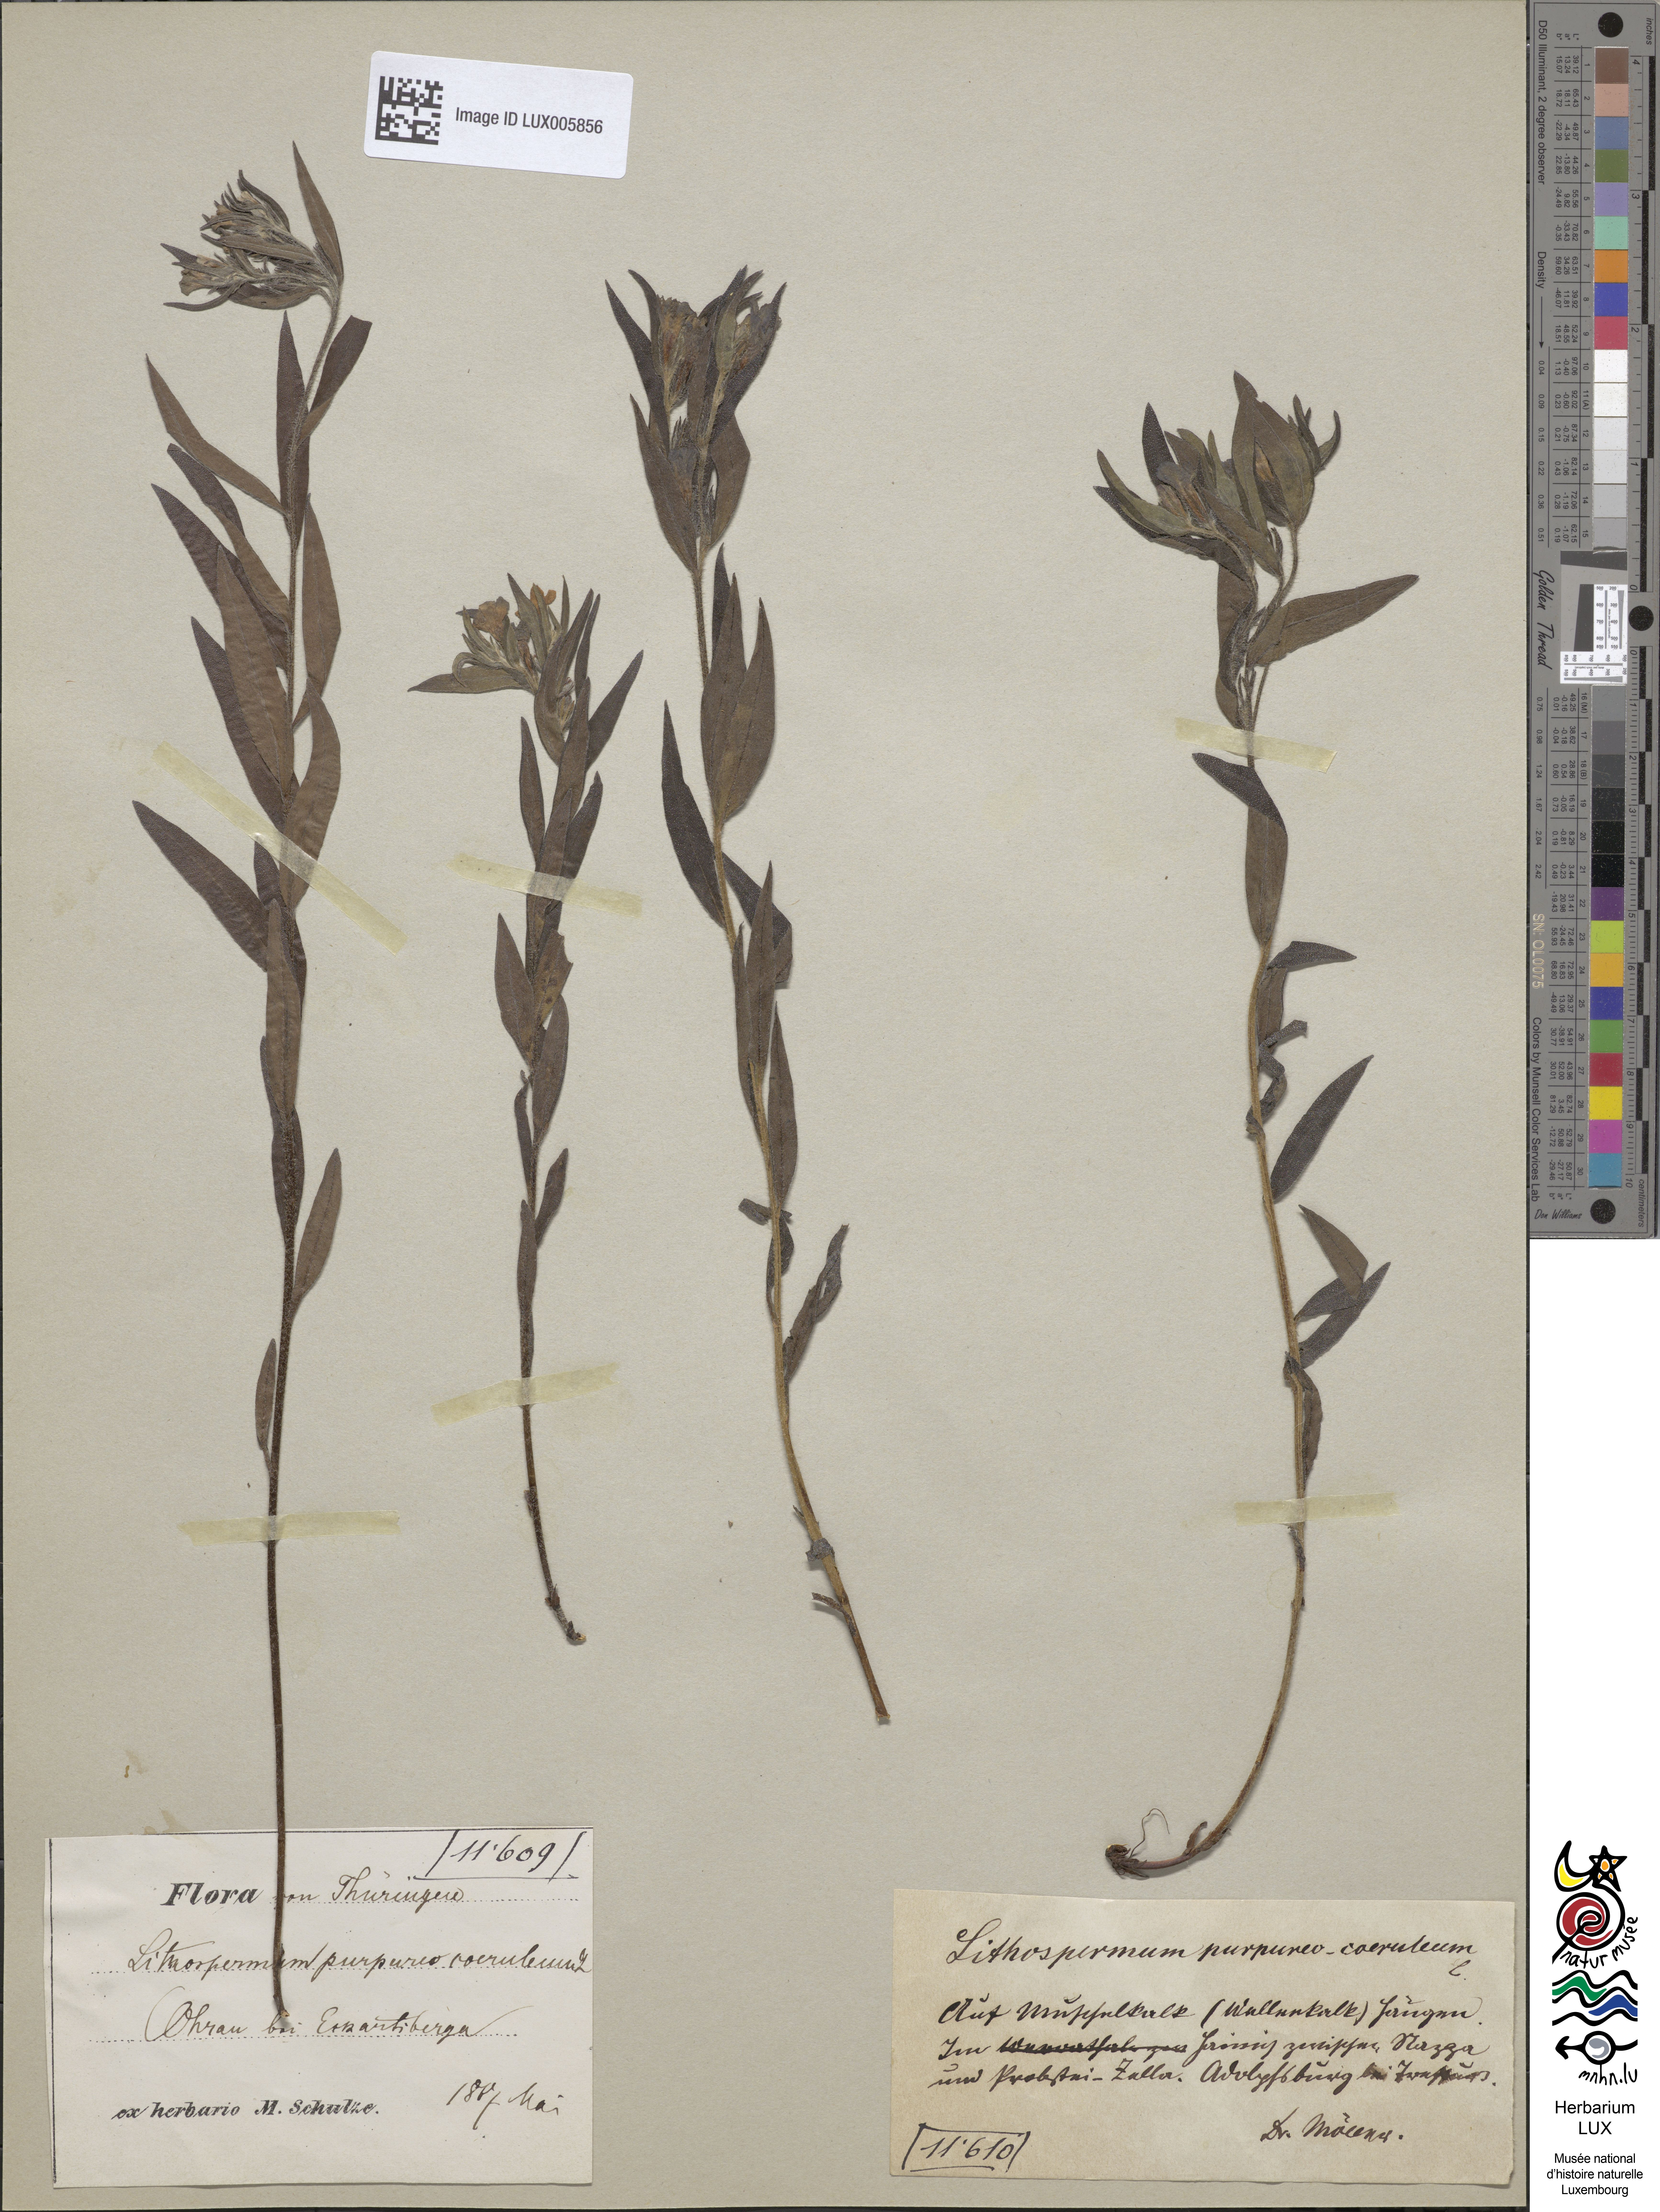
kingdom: Plantae
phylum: Tracheophyta
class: Magnoliopsida
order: Boraginales
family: Boraginaceae
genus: Aegonychon
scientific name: Aegonychon purpurocaeruleum
